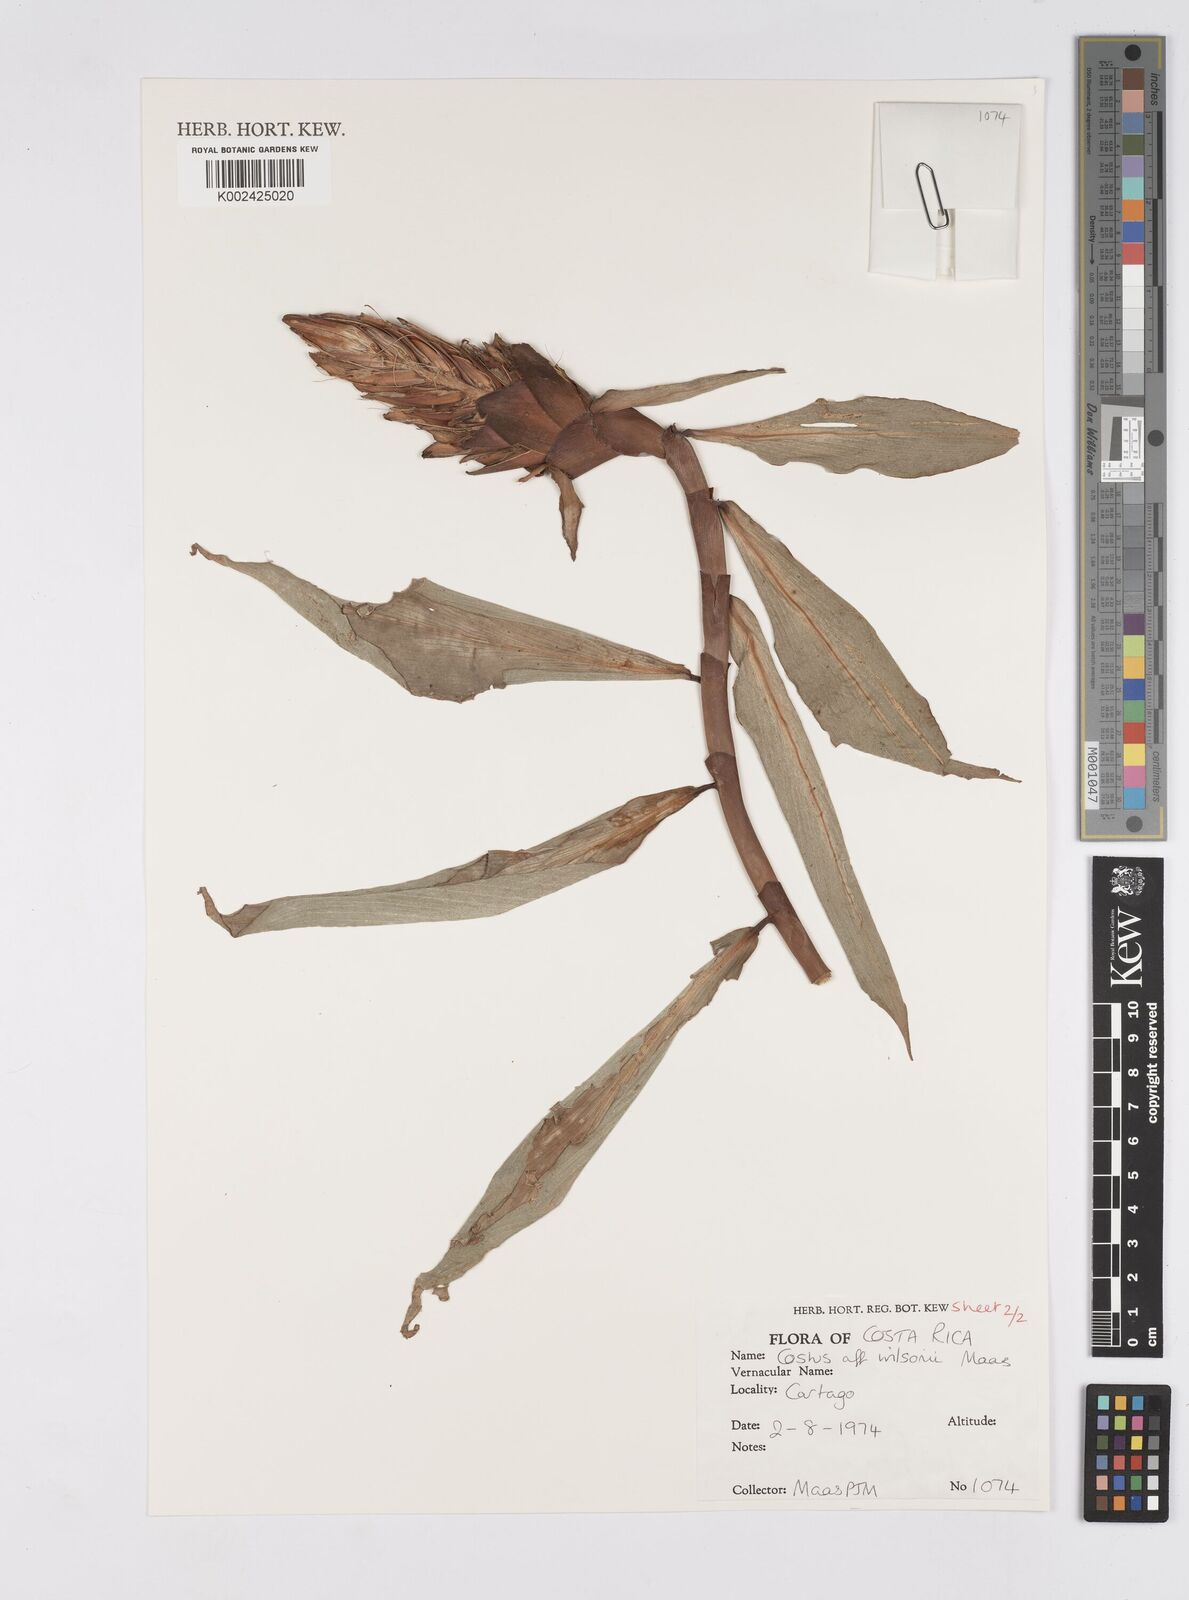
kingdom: Plantae
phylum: Tracheophyta
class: Liliopsida
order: Zingiberales
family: Costaceae
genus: Costus
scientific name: Costus wilsonii
